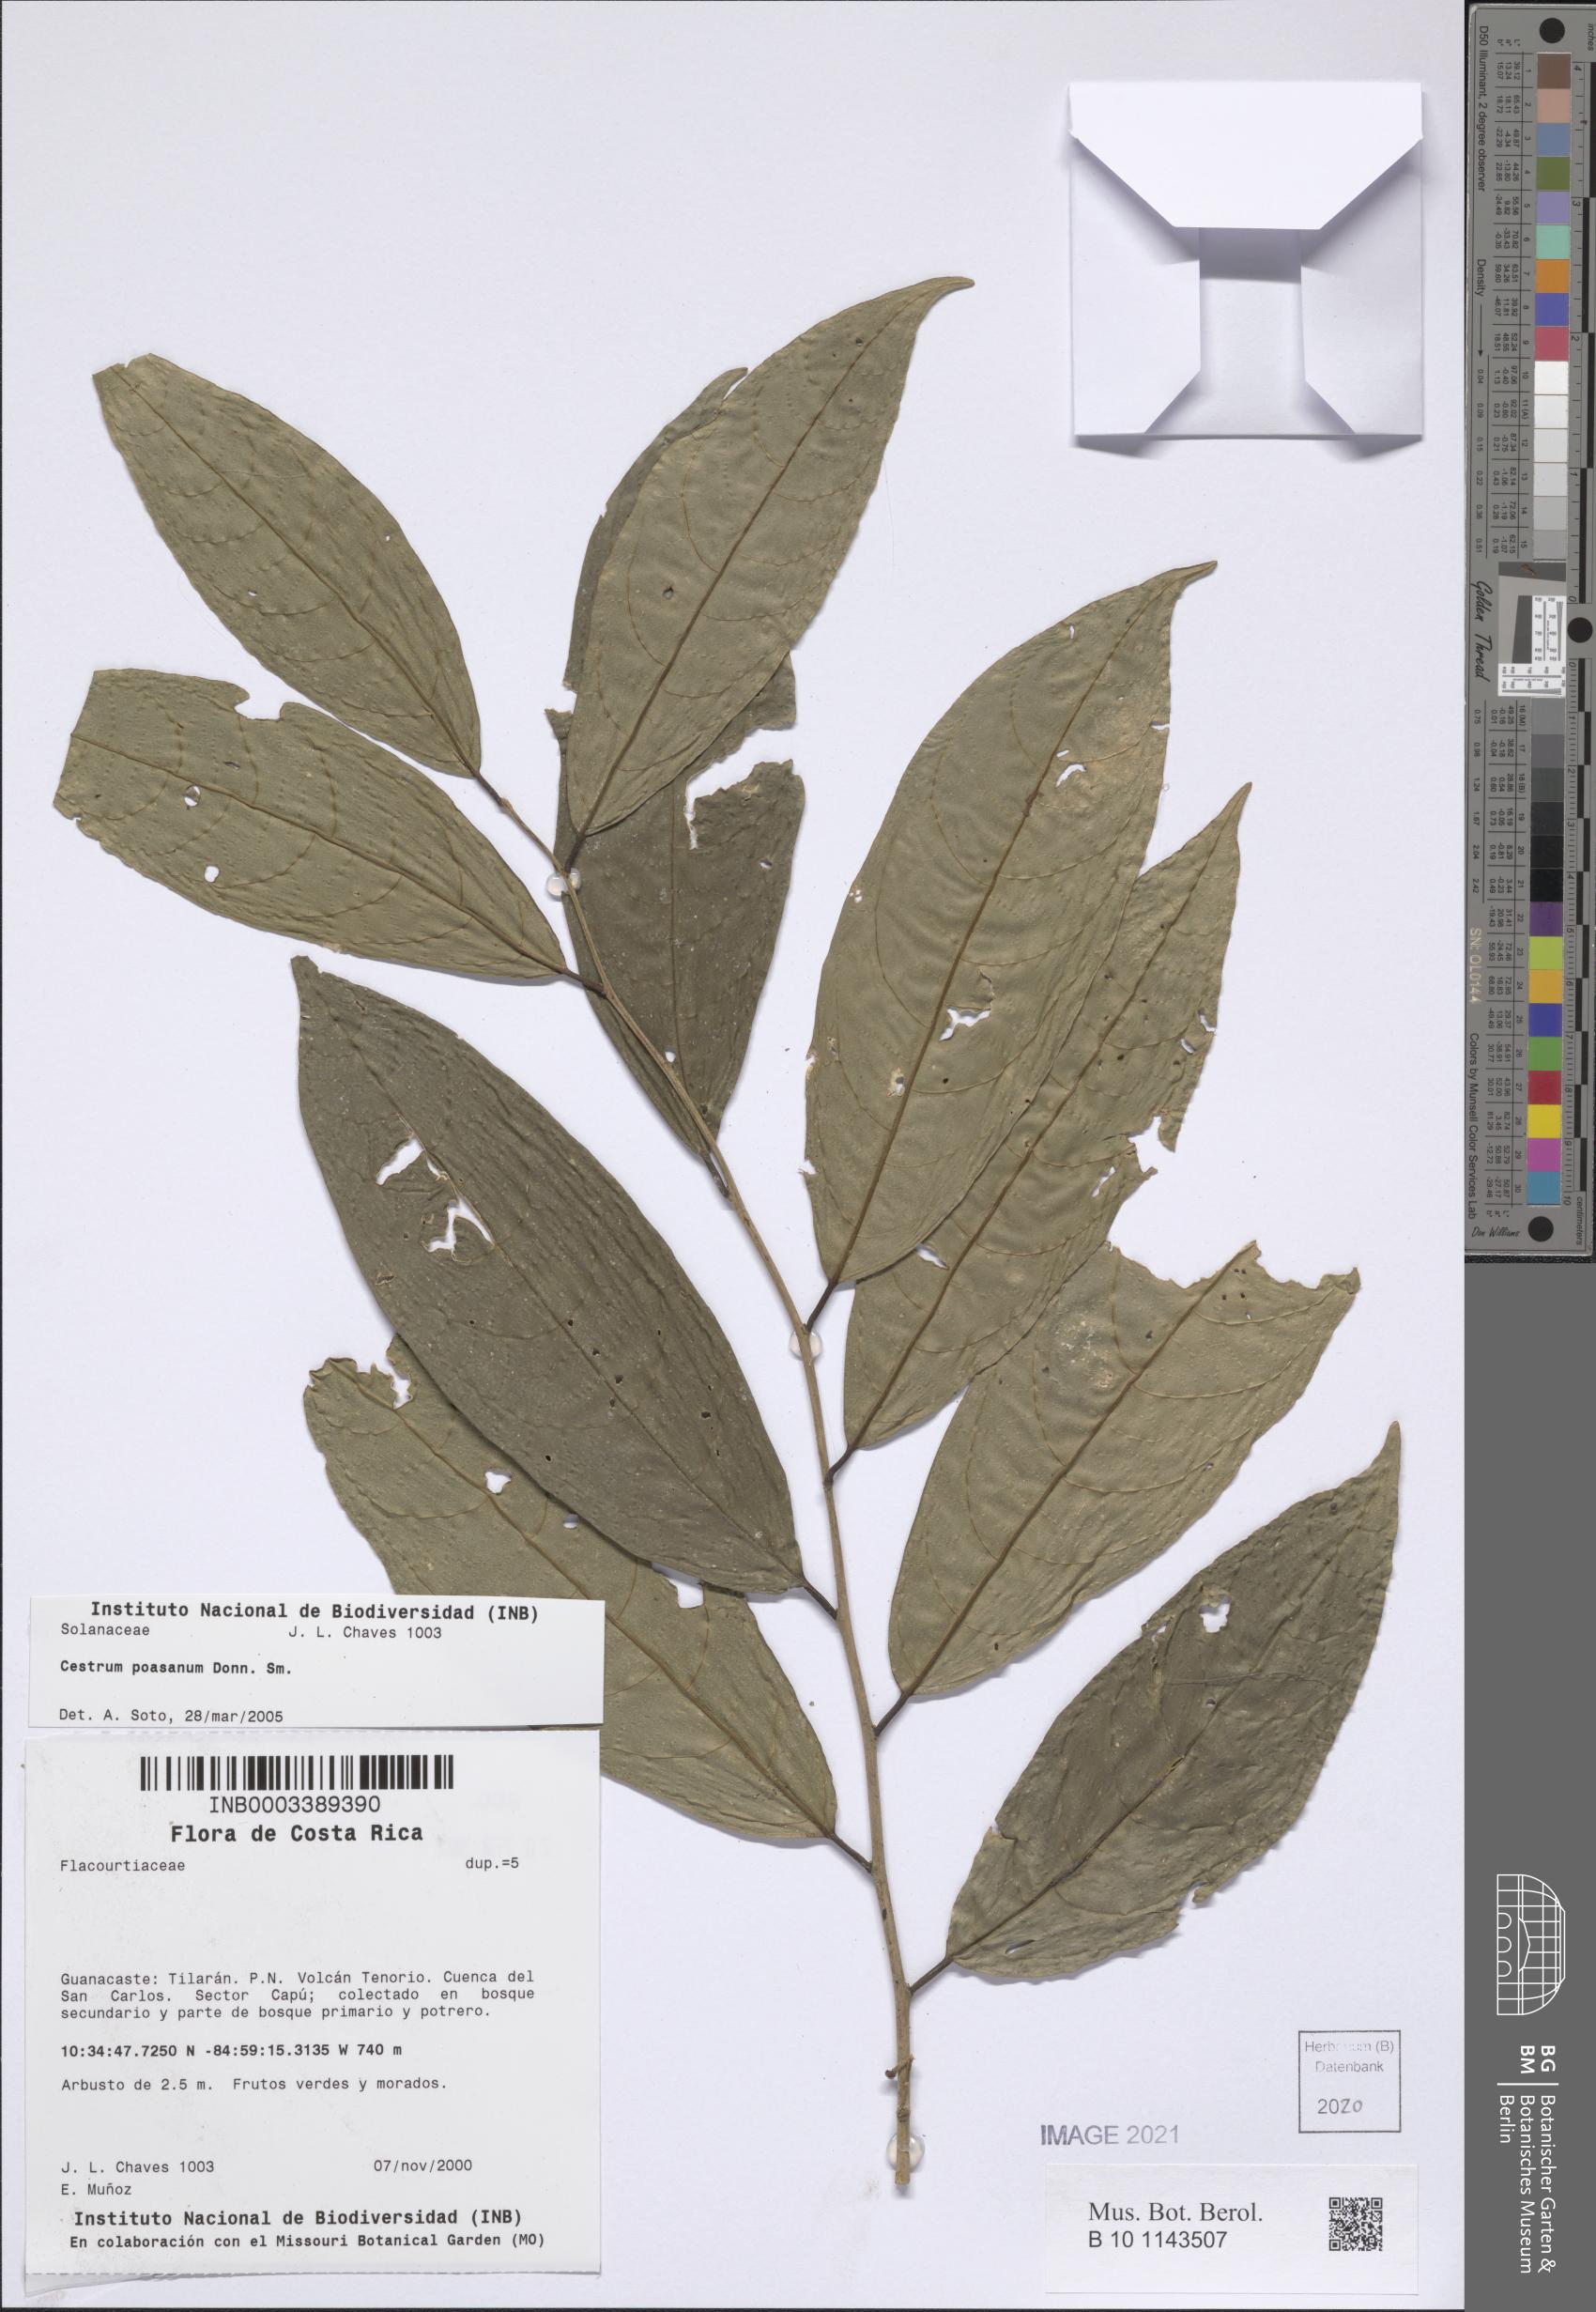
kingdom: Plantae
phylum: Tracheophyta
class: Magnoliopsida
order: Solanales
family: Solanaceae
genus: Cestrum
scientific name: Cestrum poasanum
